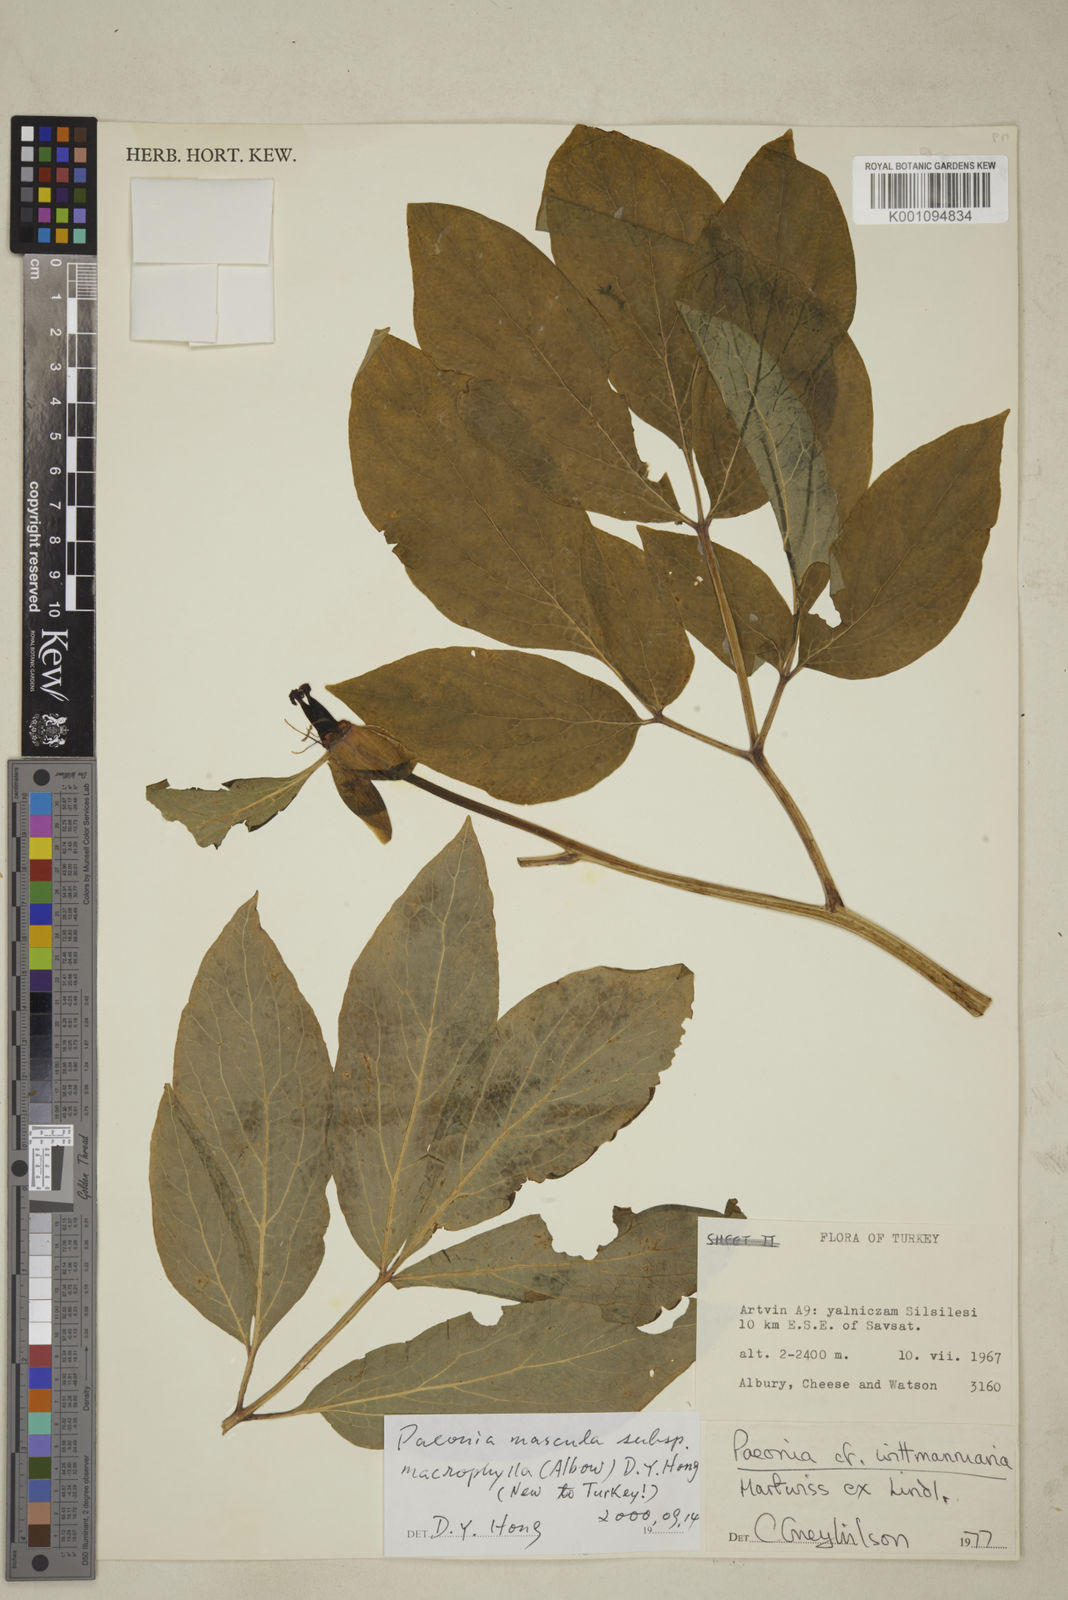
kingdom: Plantae
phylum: Tracheophyta
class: Magnoliopsida
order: Saxifragales
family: Paeoniaceae
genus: Paeonia
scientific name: Paeonia wittmanniana
